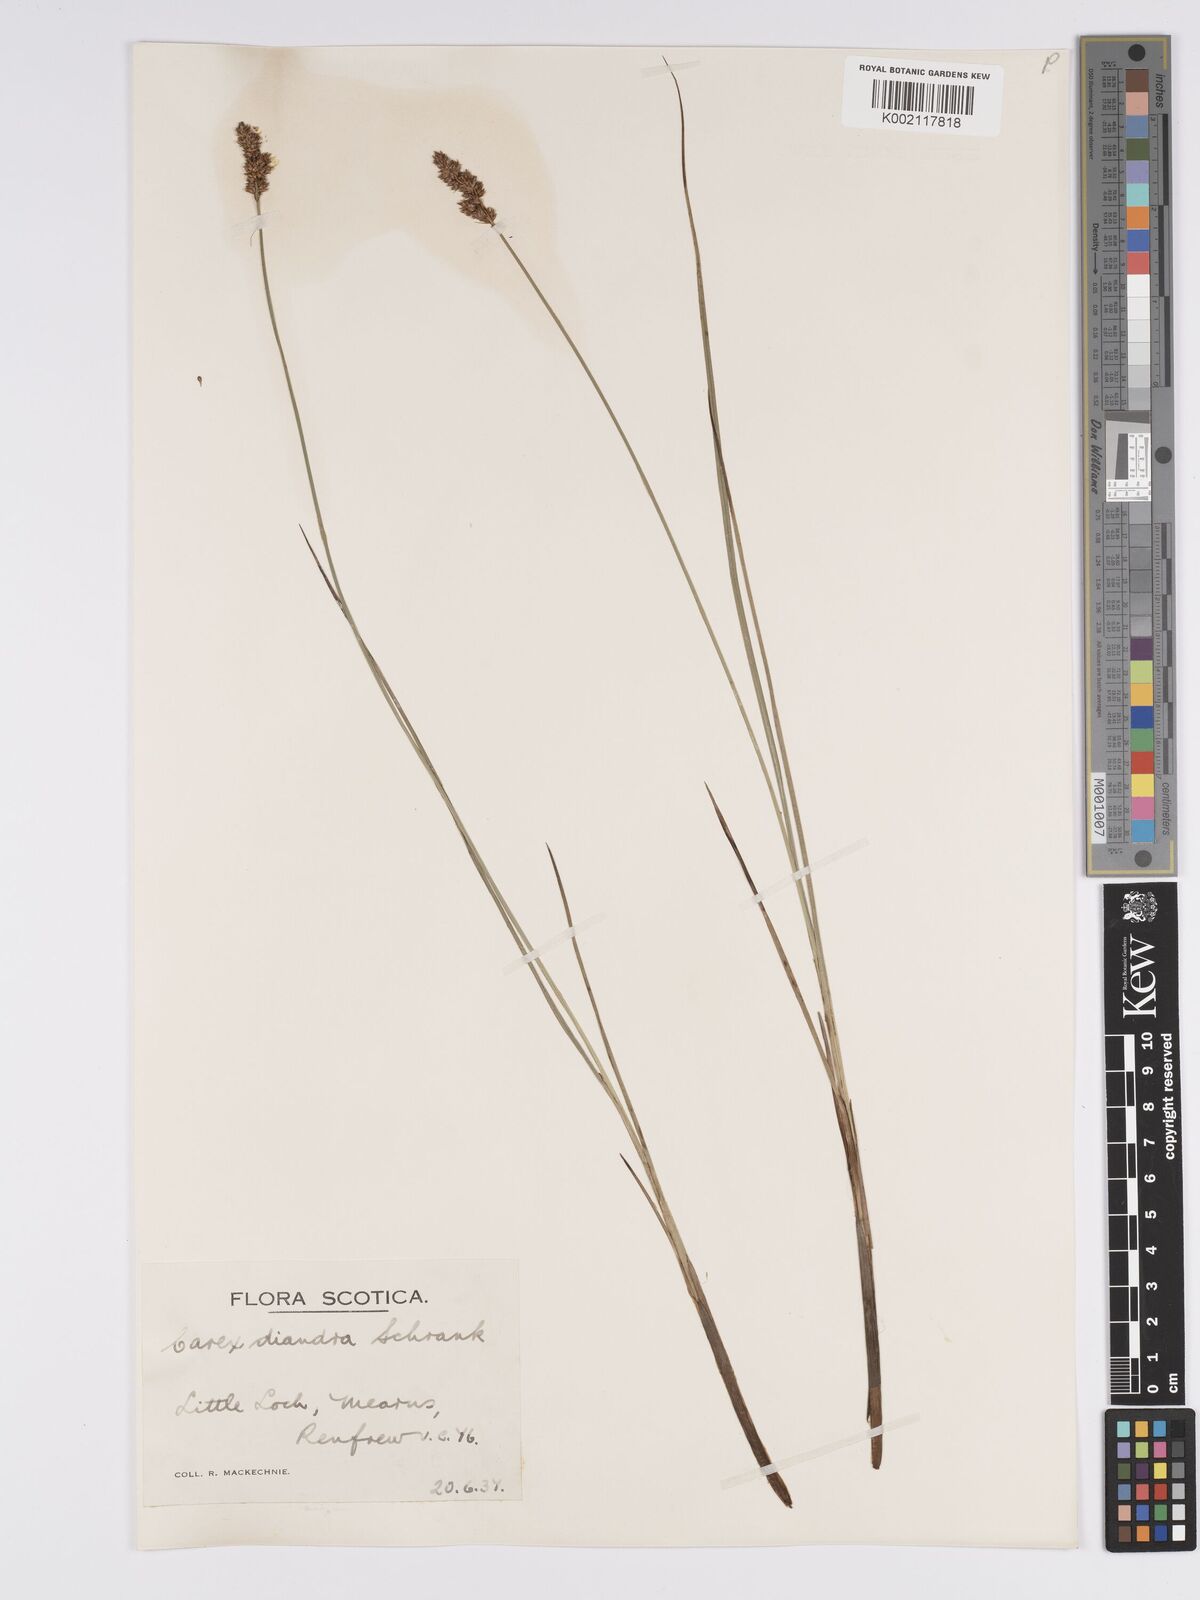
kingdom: Plantae
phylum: Tracheophyta
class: Liliopsida
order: Poales
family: Cyperaceae
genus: Carex
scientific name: Carex diandra
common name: Lesser tussock-sedge
